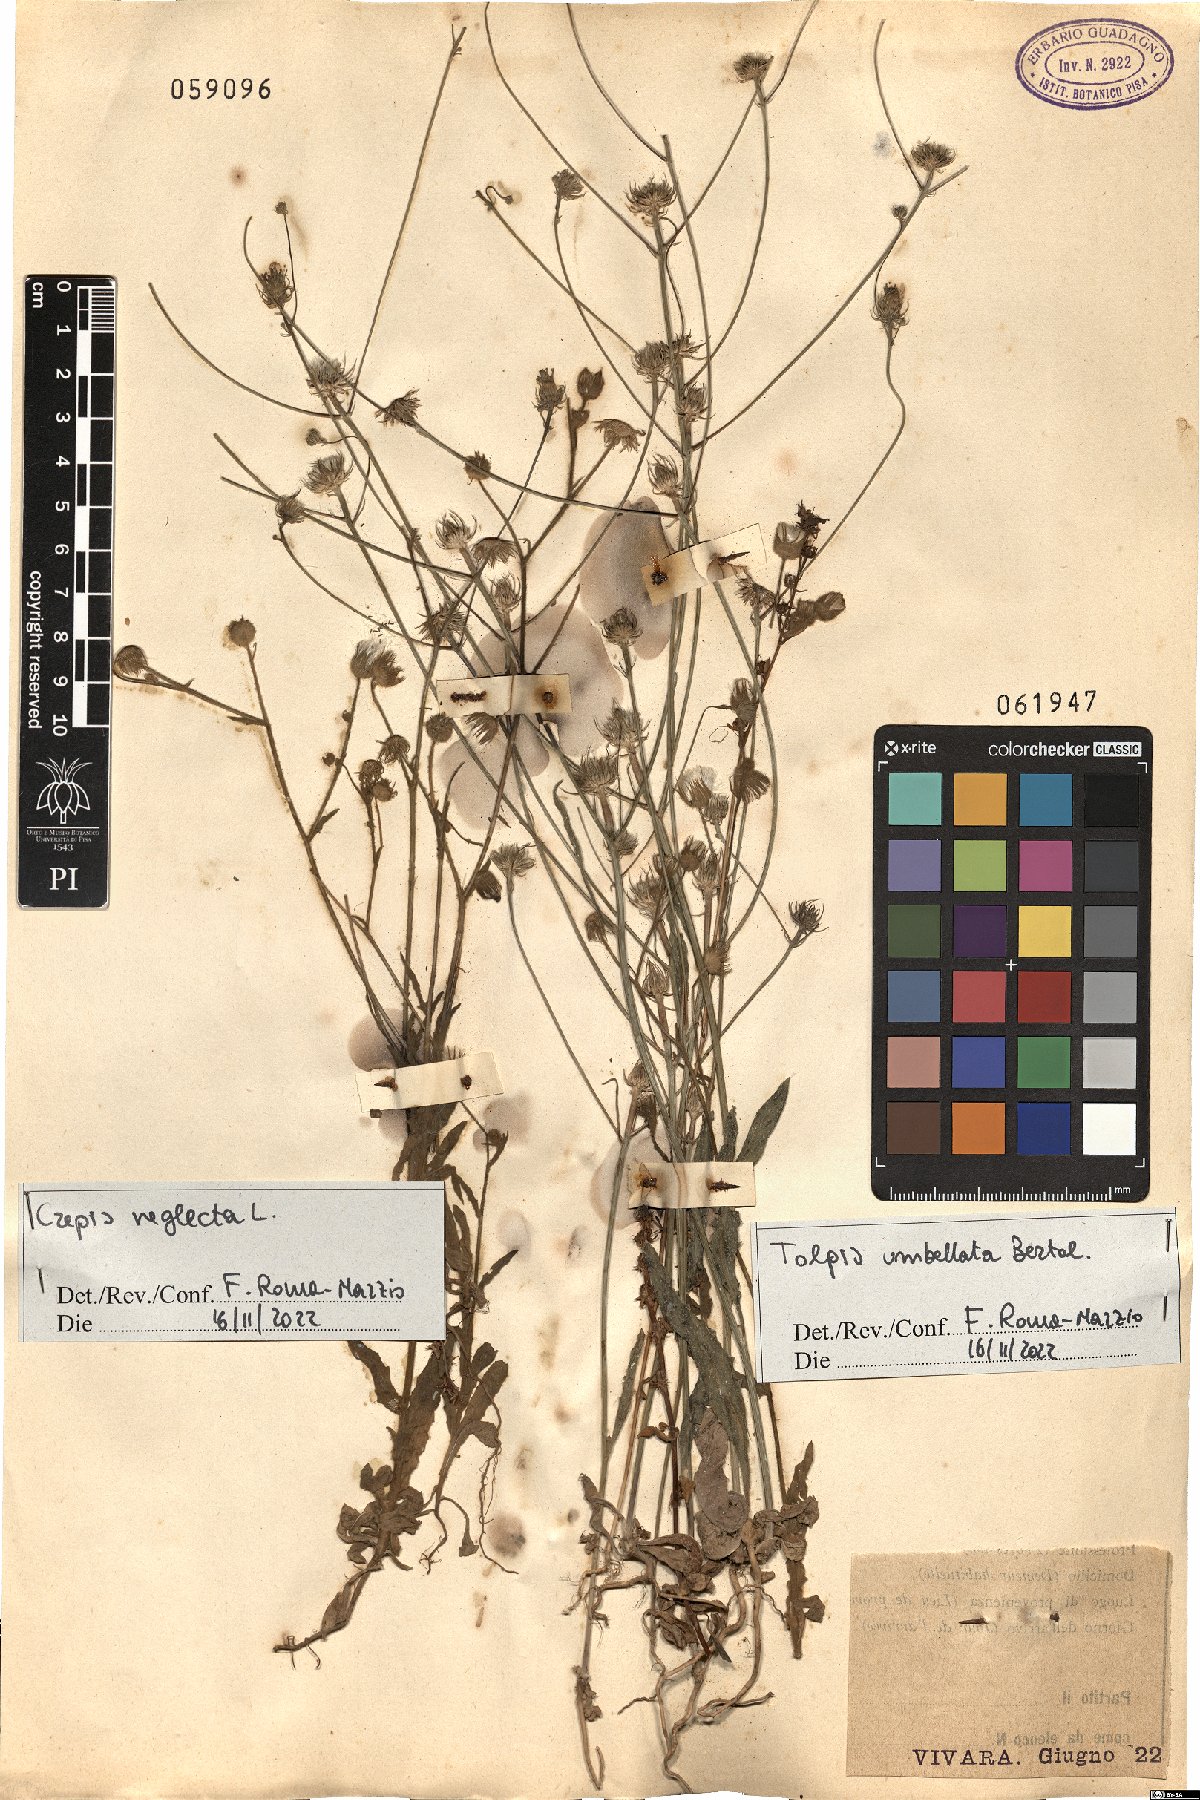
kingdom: Plantae
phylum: Tracheophyta
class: Magnoliopsida
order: Asterales
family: Asteraceae
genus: Tolpis
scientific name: Tolpis umbellata
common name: Yellow hawkweed
